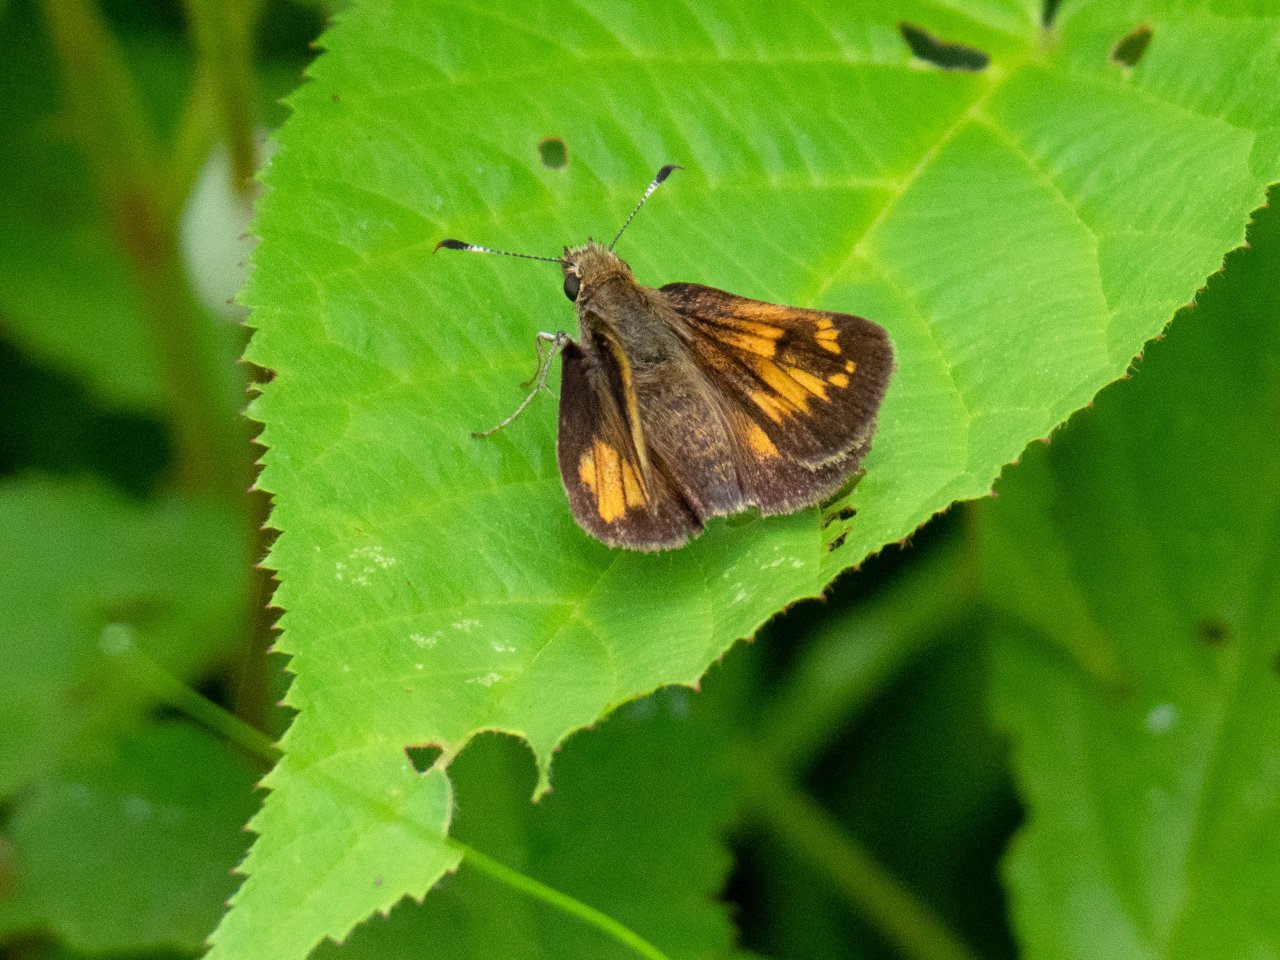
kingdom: Animalia
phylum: Arthropoda
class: Insecta
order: Lepidoptera
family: Hesperiidae
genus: Polites
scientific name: Polites
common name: Long Dash Skipper
